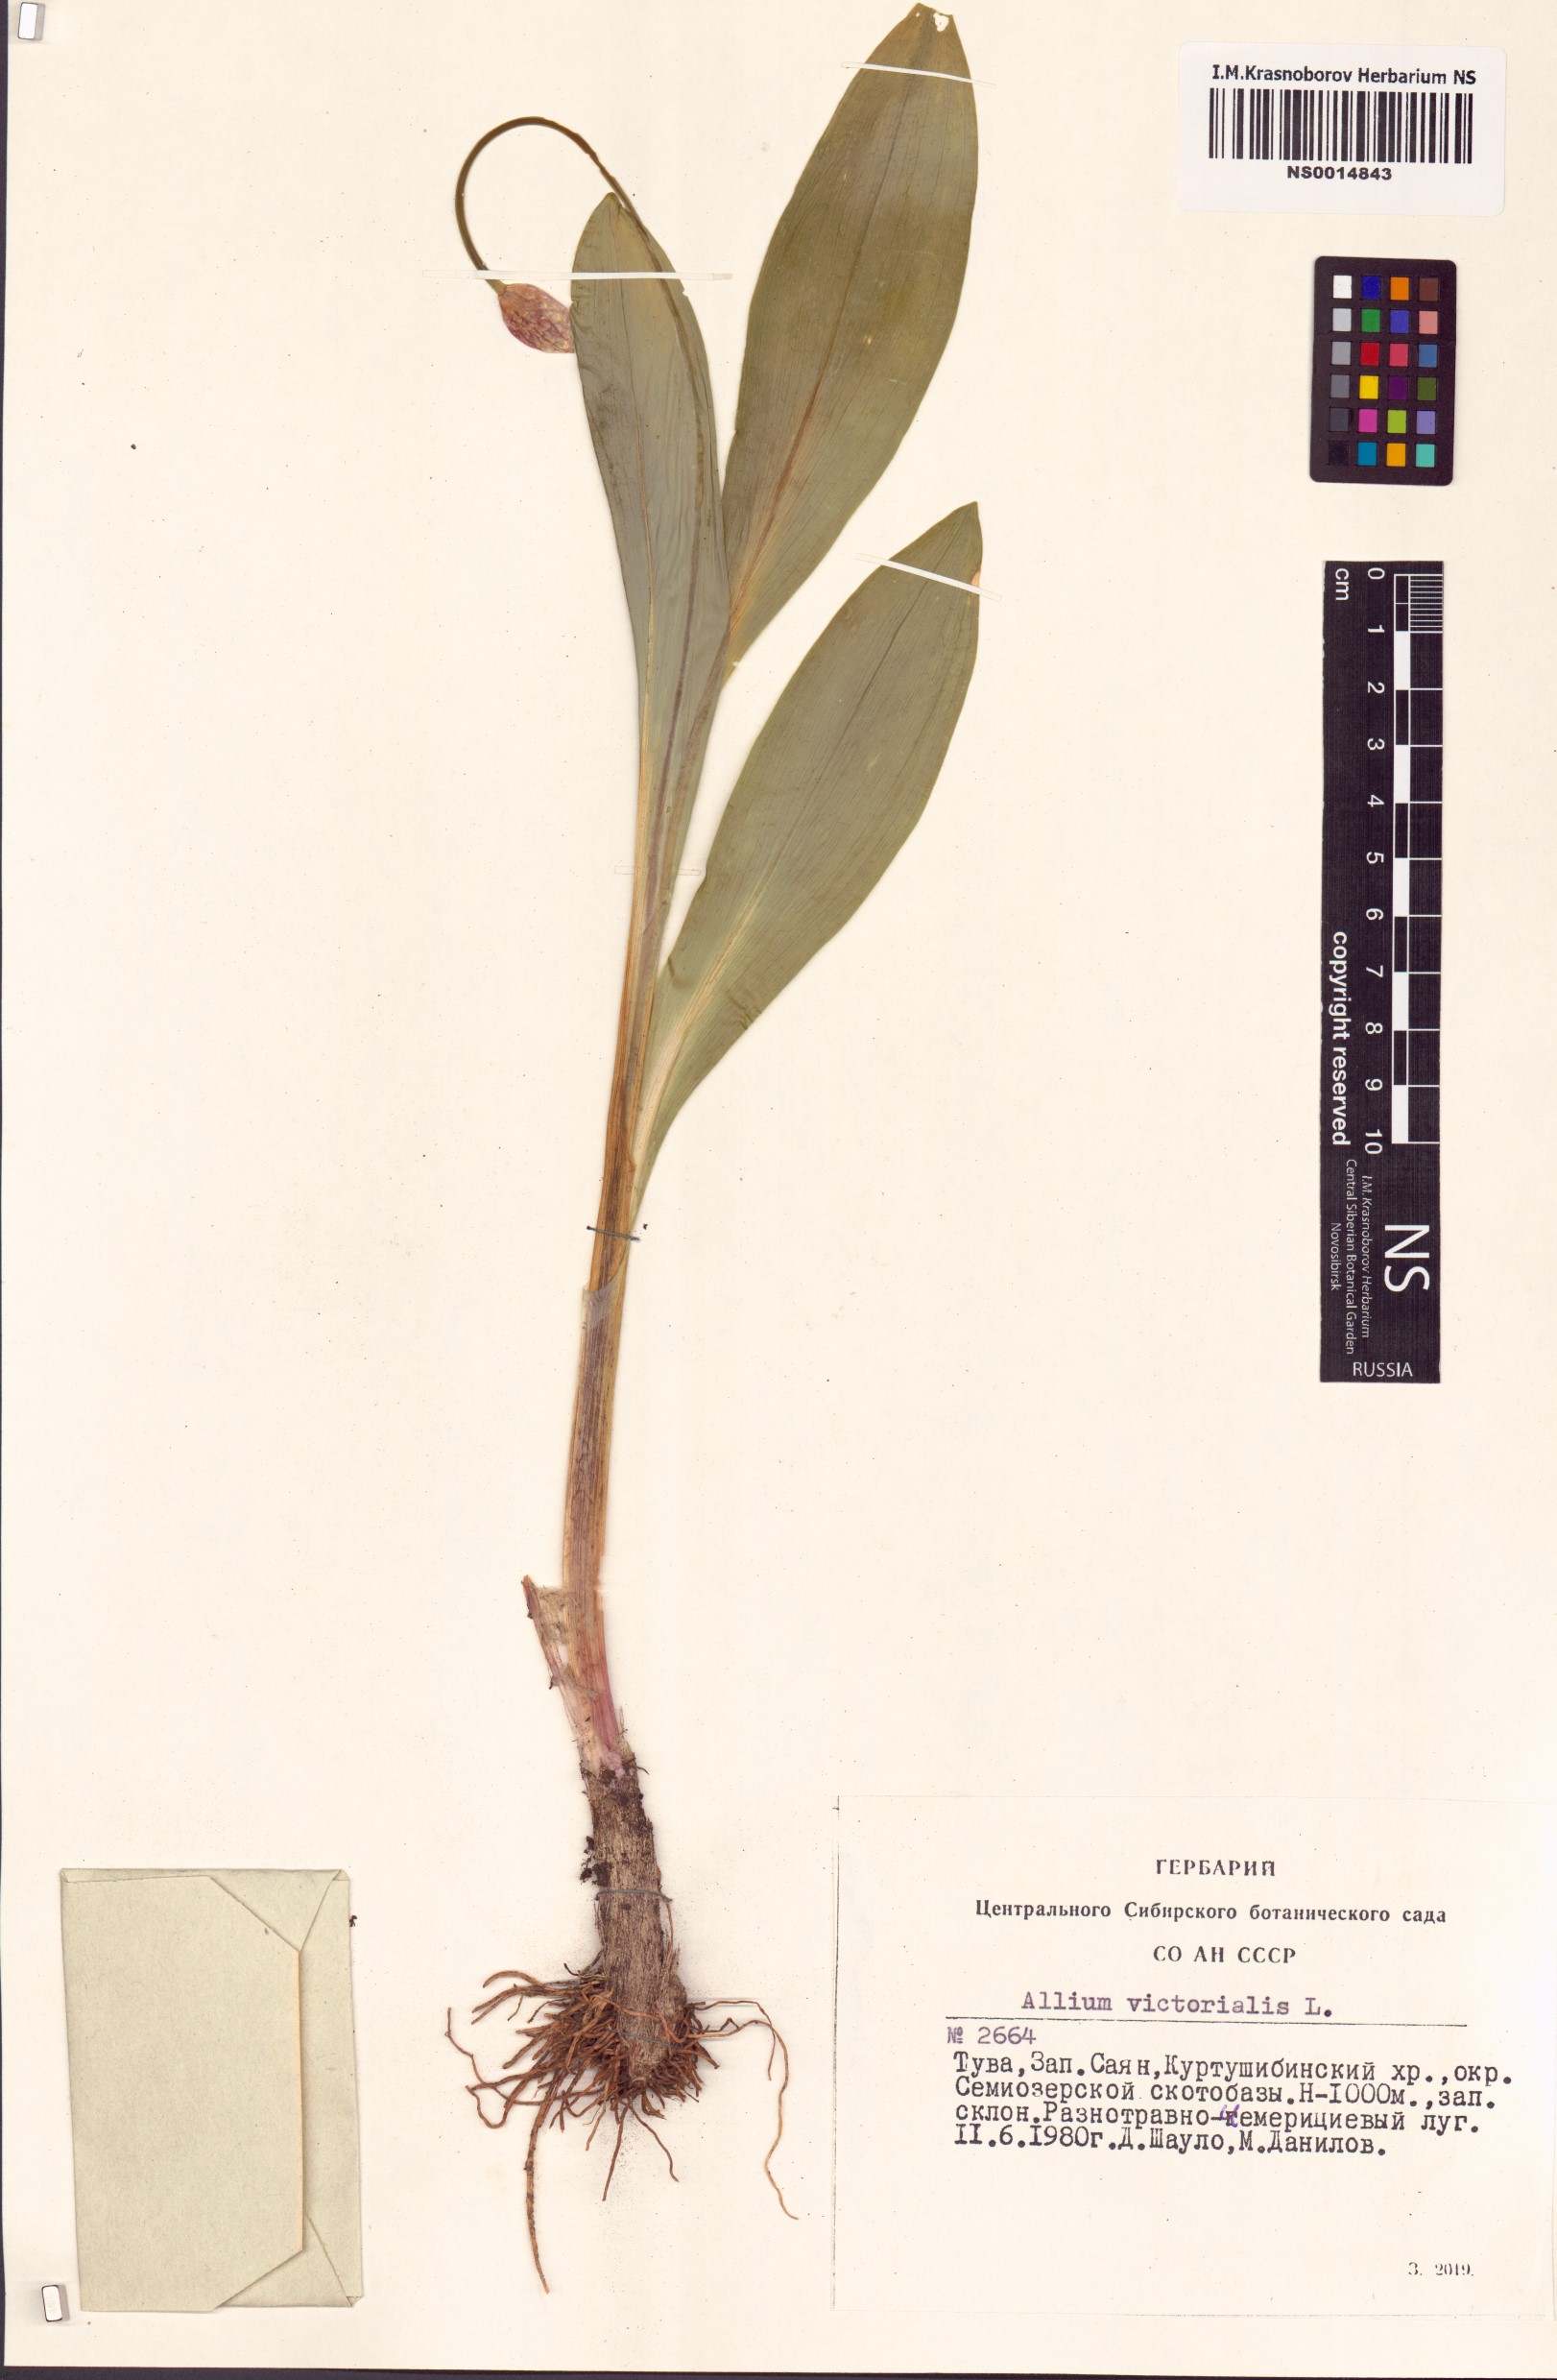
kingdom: Plantae
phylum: Tracheophyta
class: Liliopsida
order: Asparagales
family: Amaryllidaceae
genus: Allium
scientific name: Allium victorialis
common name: Alpine leek
